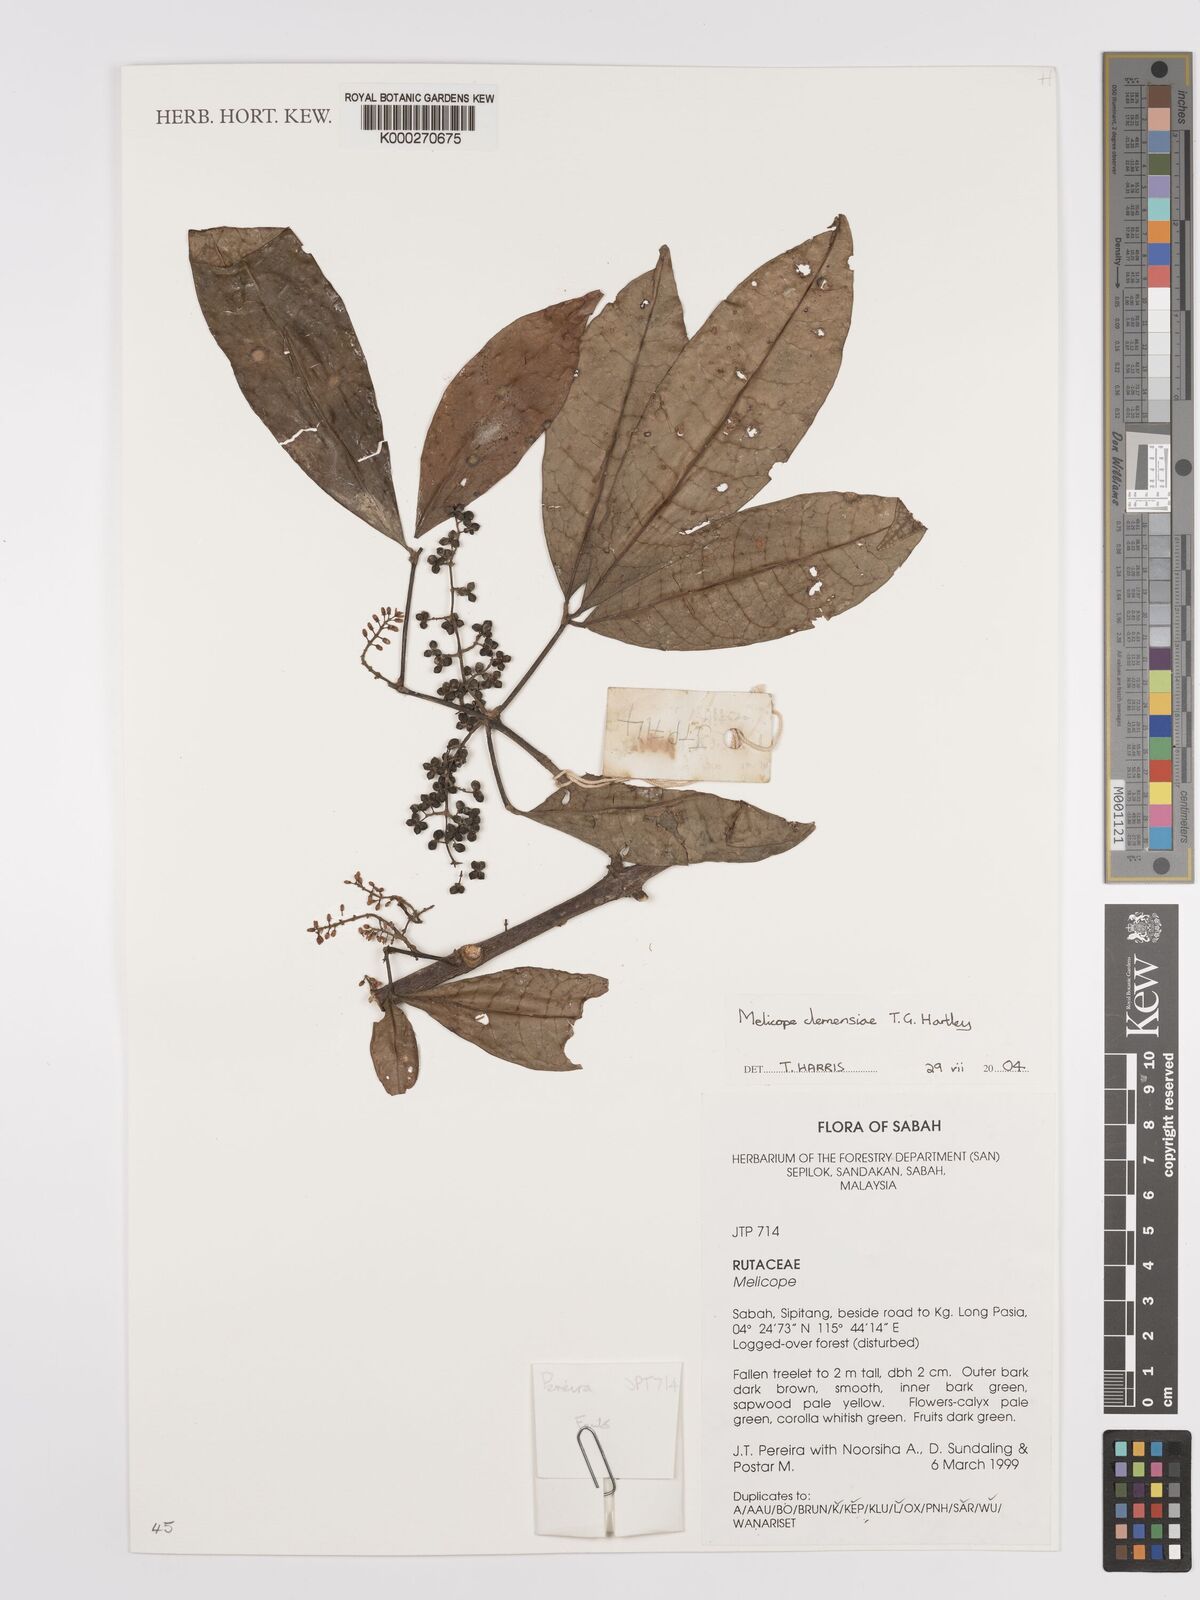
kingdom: Plantae
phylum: Tracheophyta
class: Magnoliopsida
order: Sapindales
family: Rutaceae
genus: Melicope
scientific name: Melicope clemensiae
